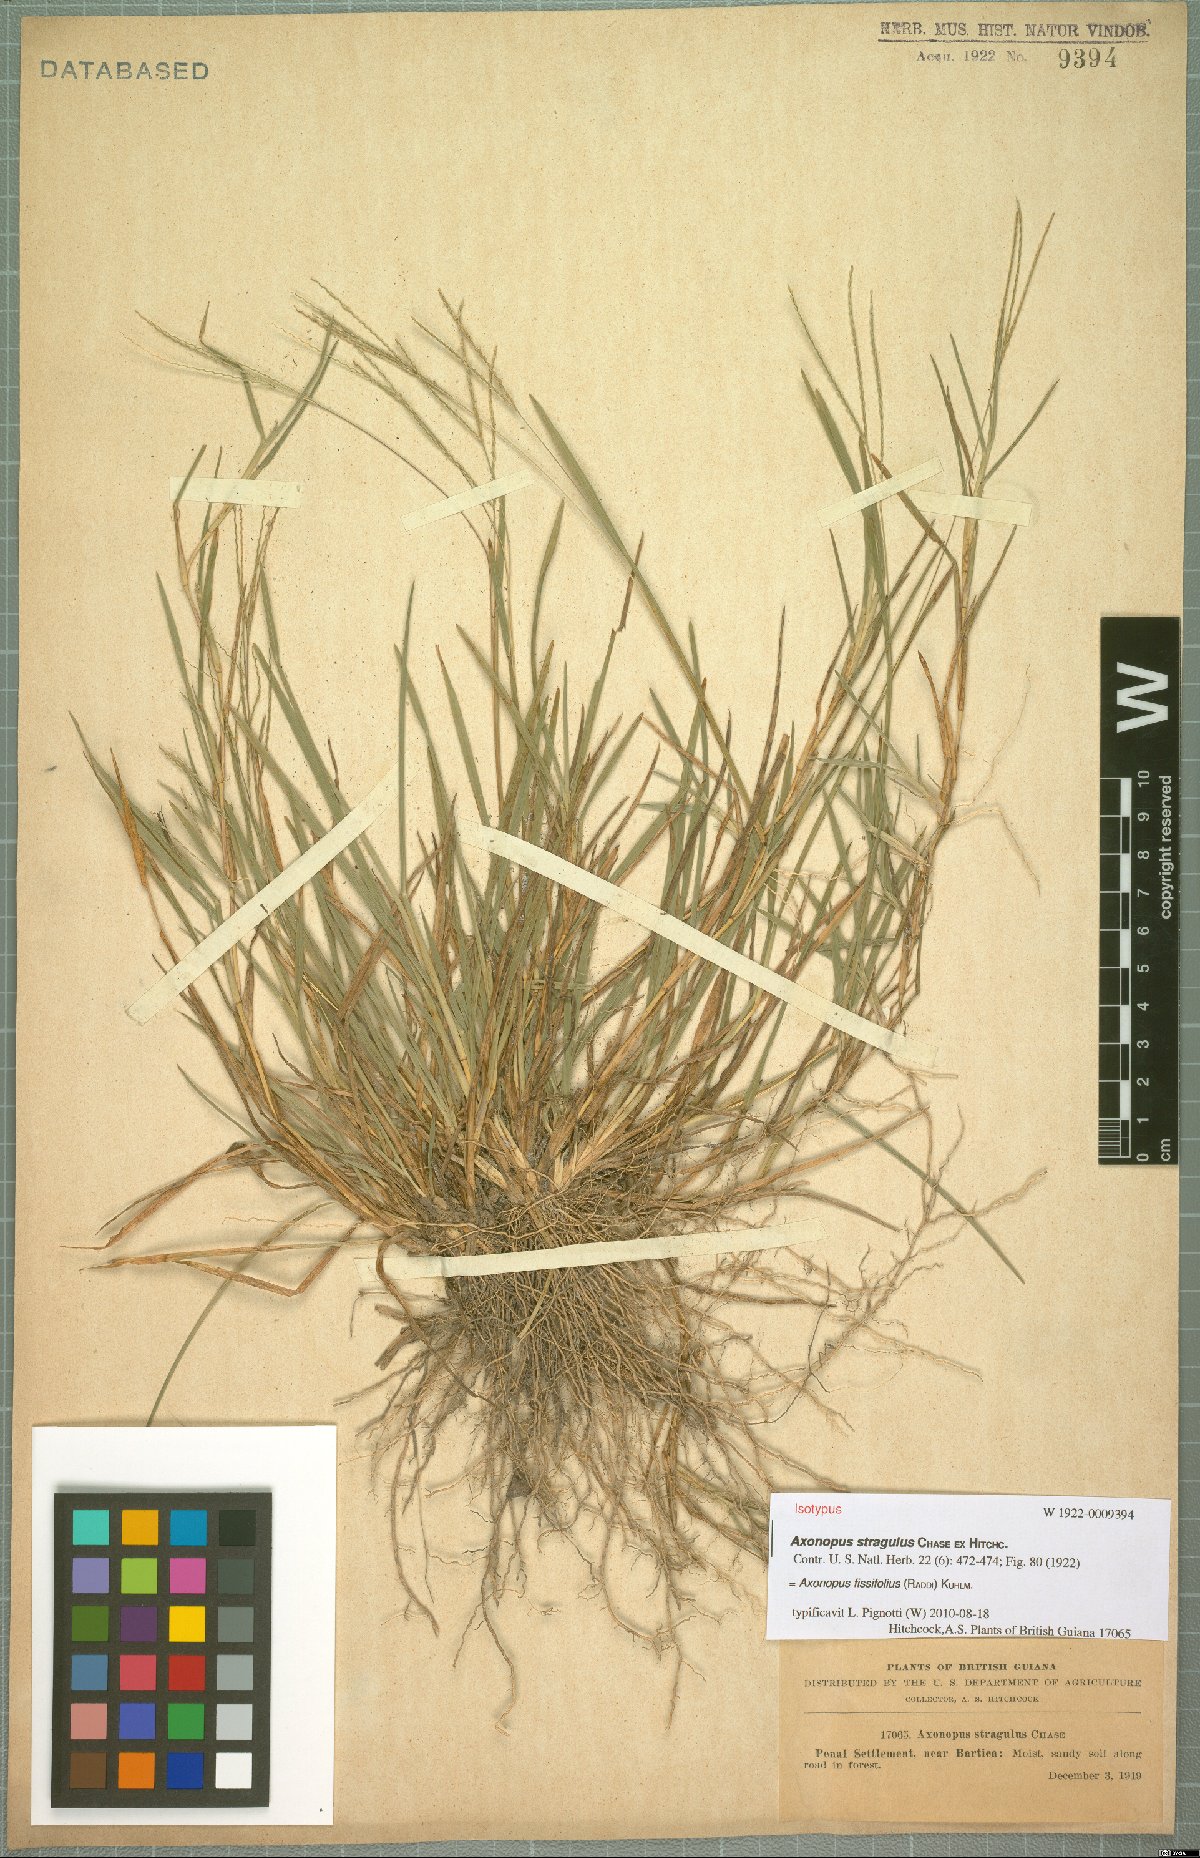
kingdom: Plantae
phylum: Tracheophyta
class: Liliopsida
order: Poales
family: Poaceae
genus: Axonopus
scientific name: Axonopus fissifolius
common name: Common carpetgrass
